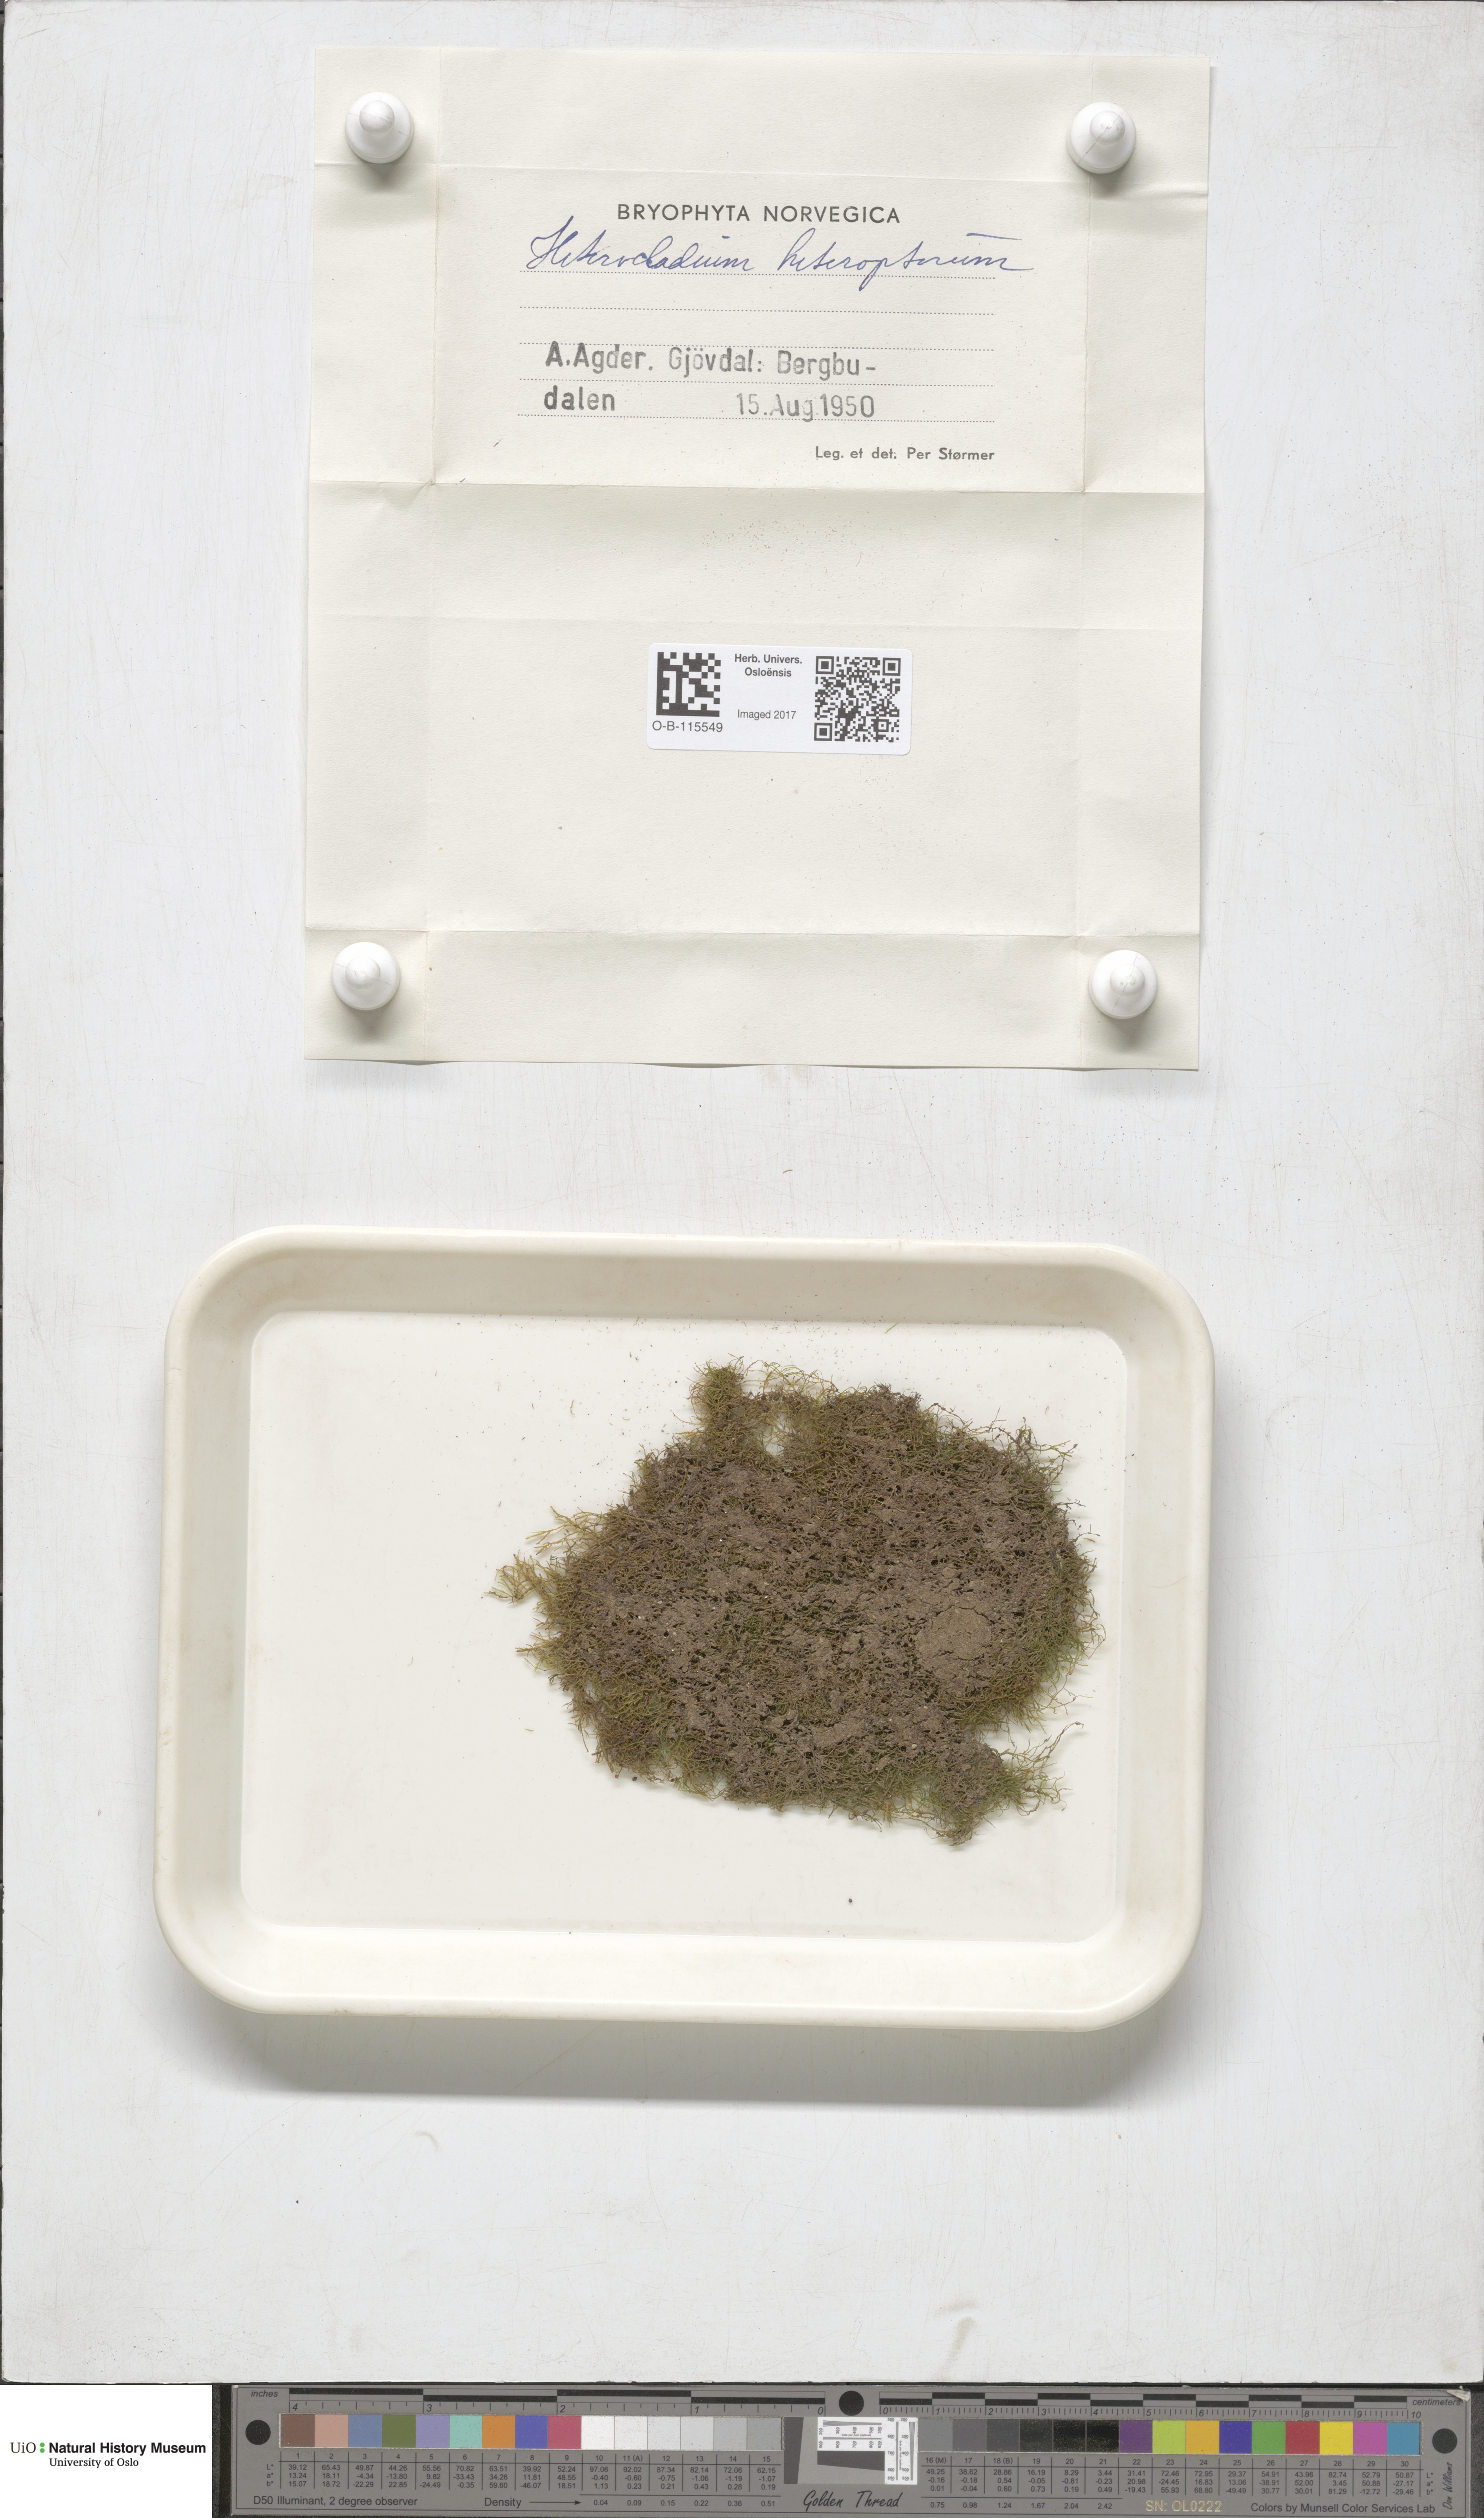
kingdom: Plantae
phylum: Bryophyta
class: Bryopsida
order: Hypnales
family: Lembophyllaceae
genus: Heterocladium
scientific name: Heterocladium heteropterum
